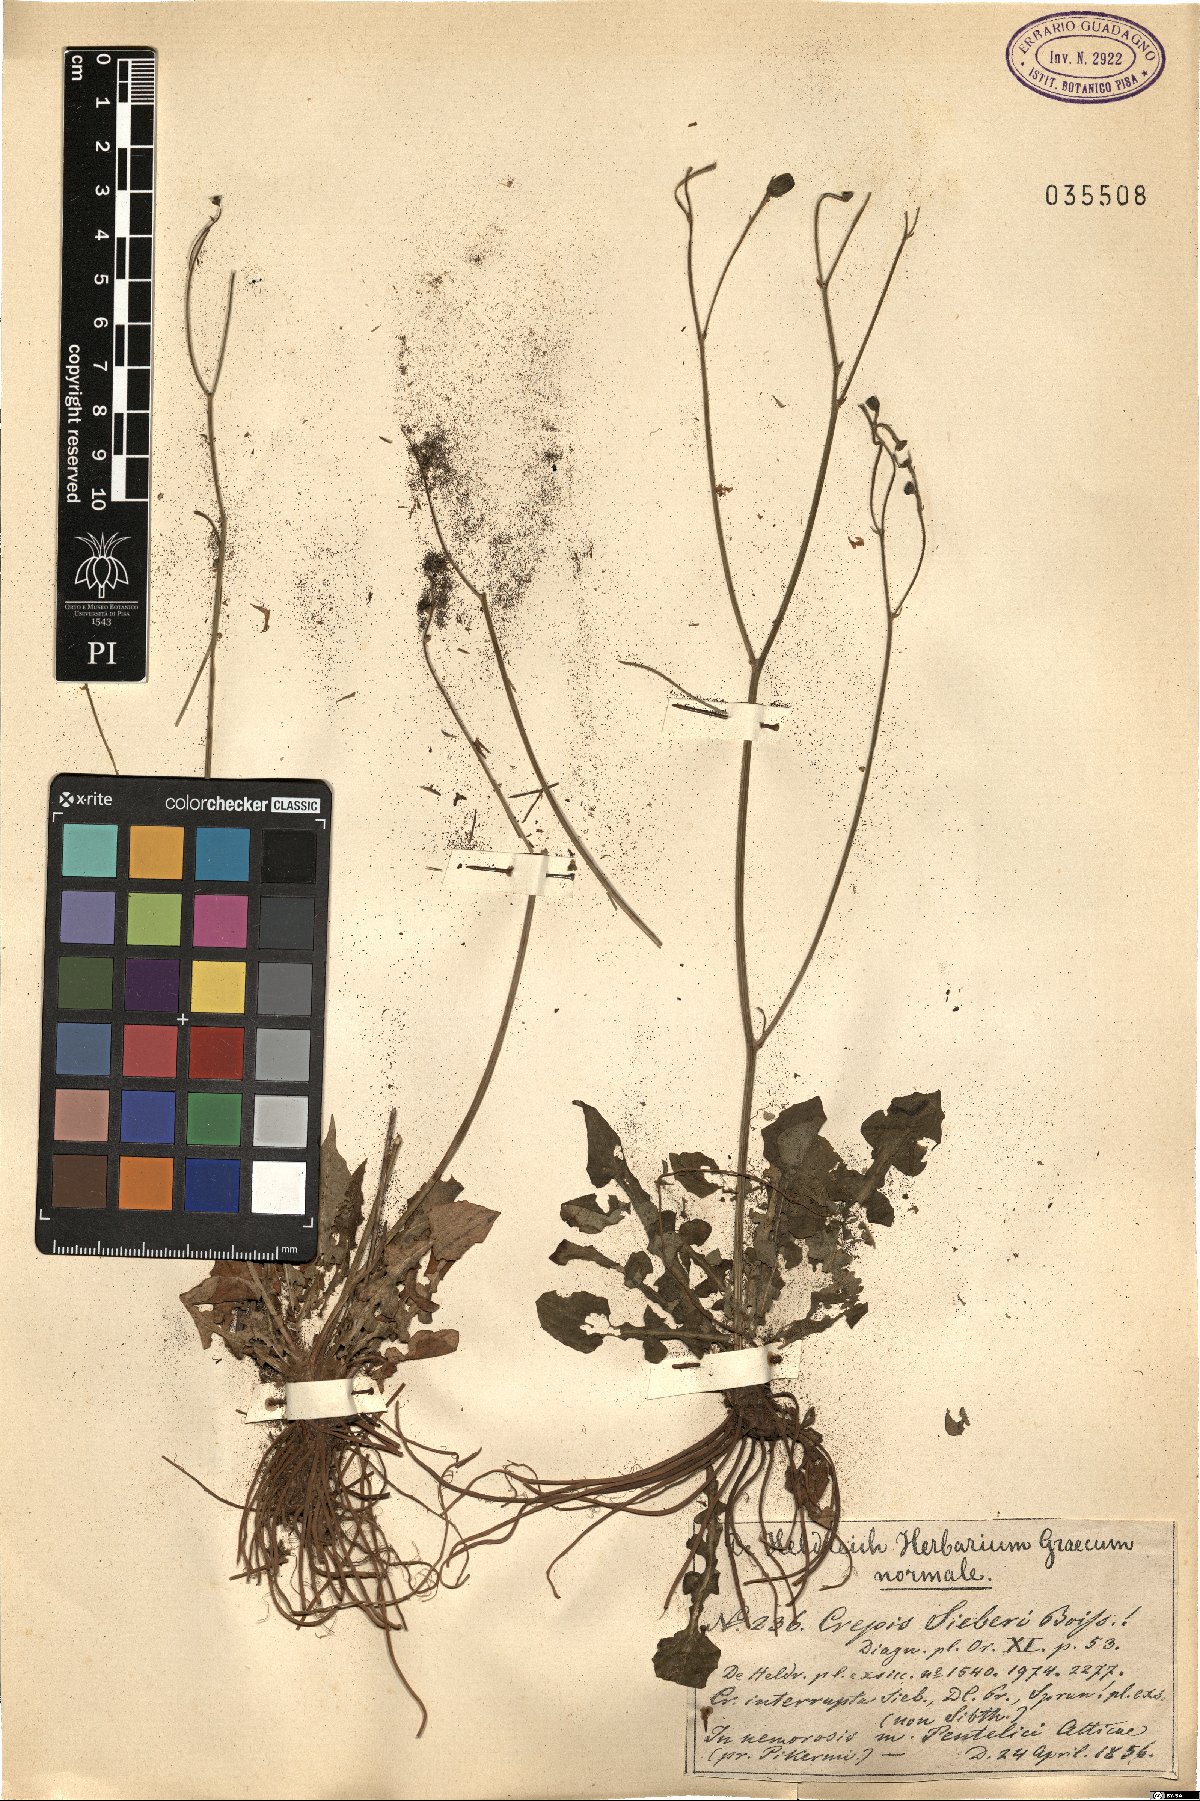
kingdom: Plantae
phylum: Tracheophyta
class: Magnoliopsida
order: Asterales
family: Asteraceae
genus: Crepis
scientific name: Crepis fraasii
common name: Hawk's-beard
